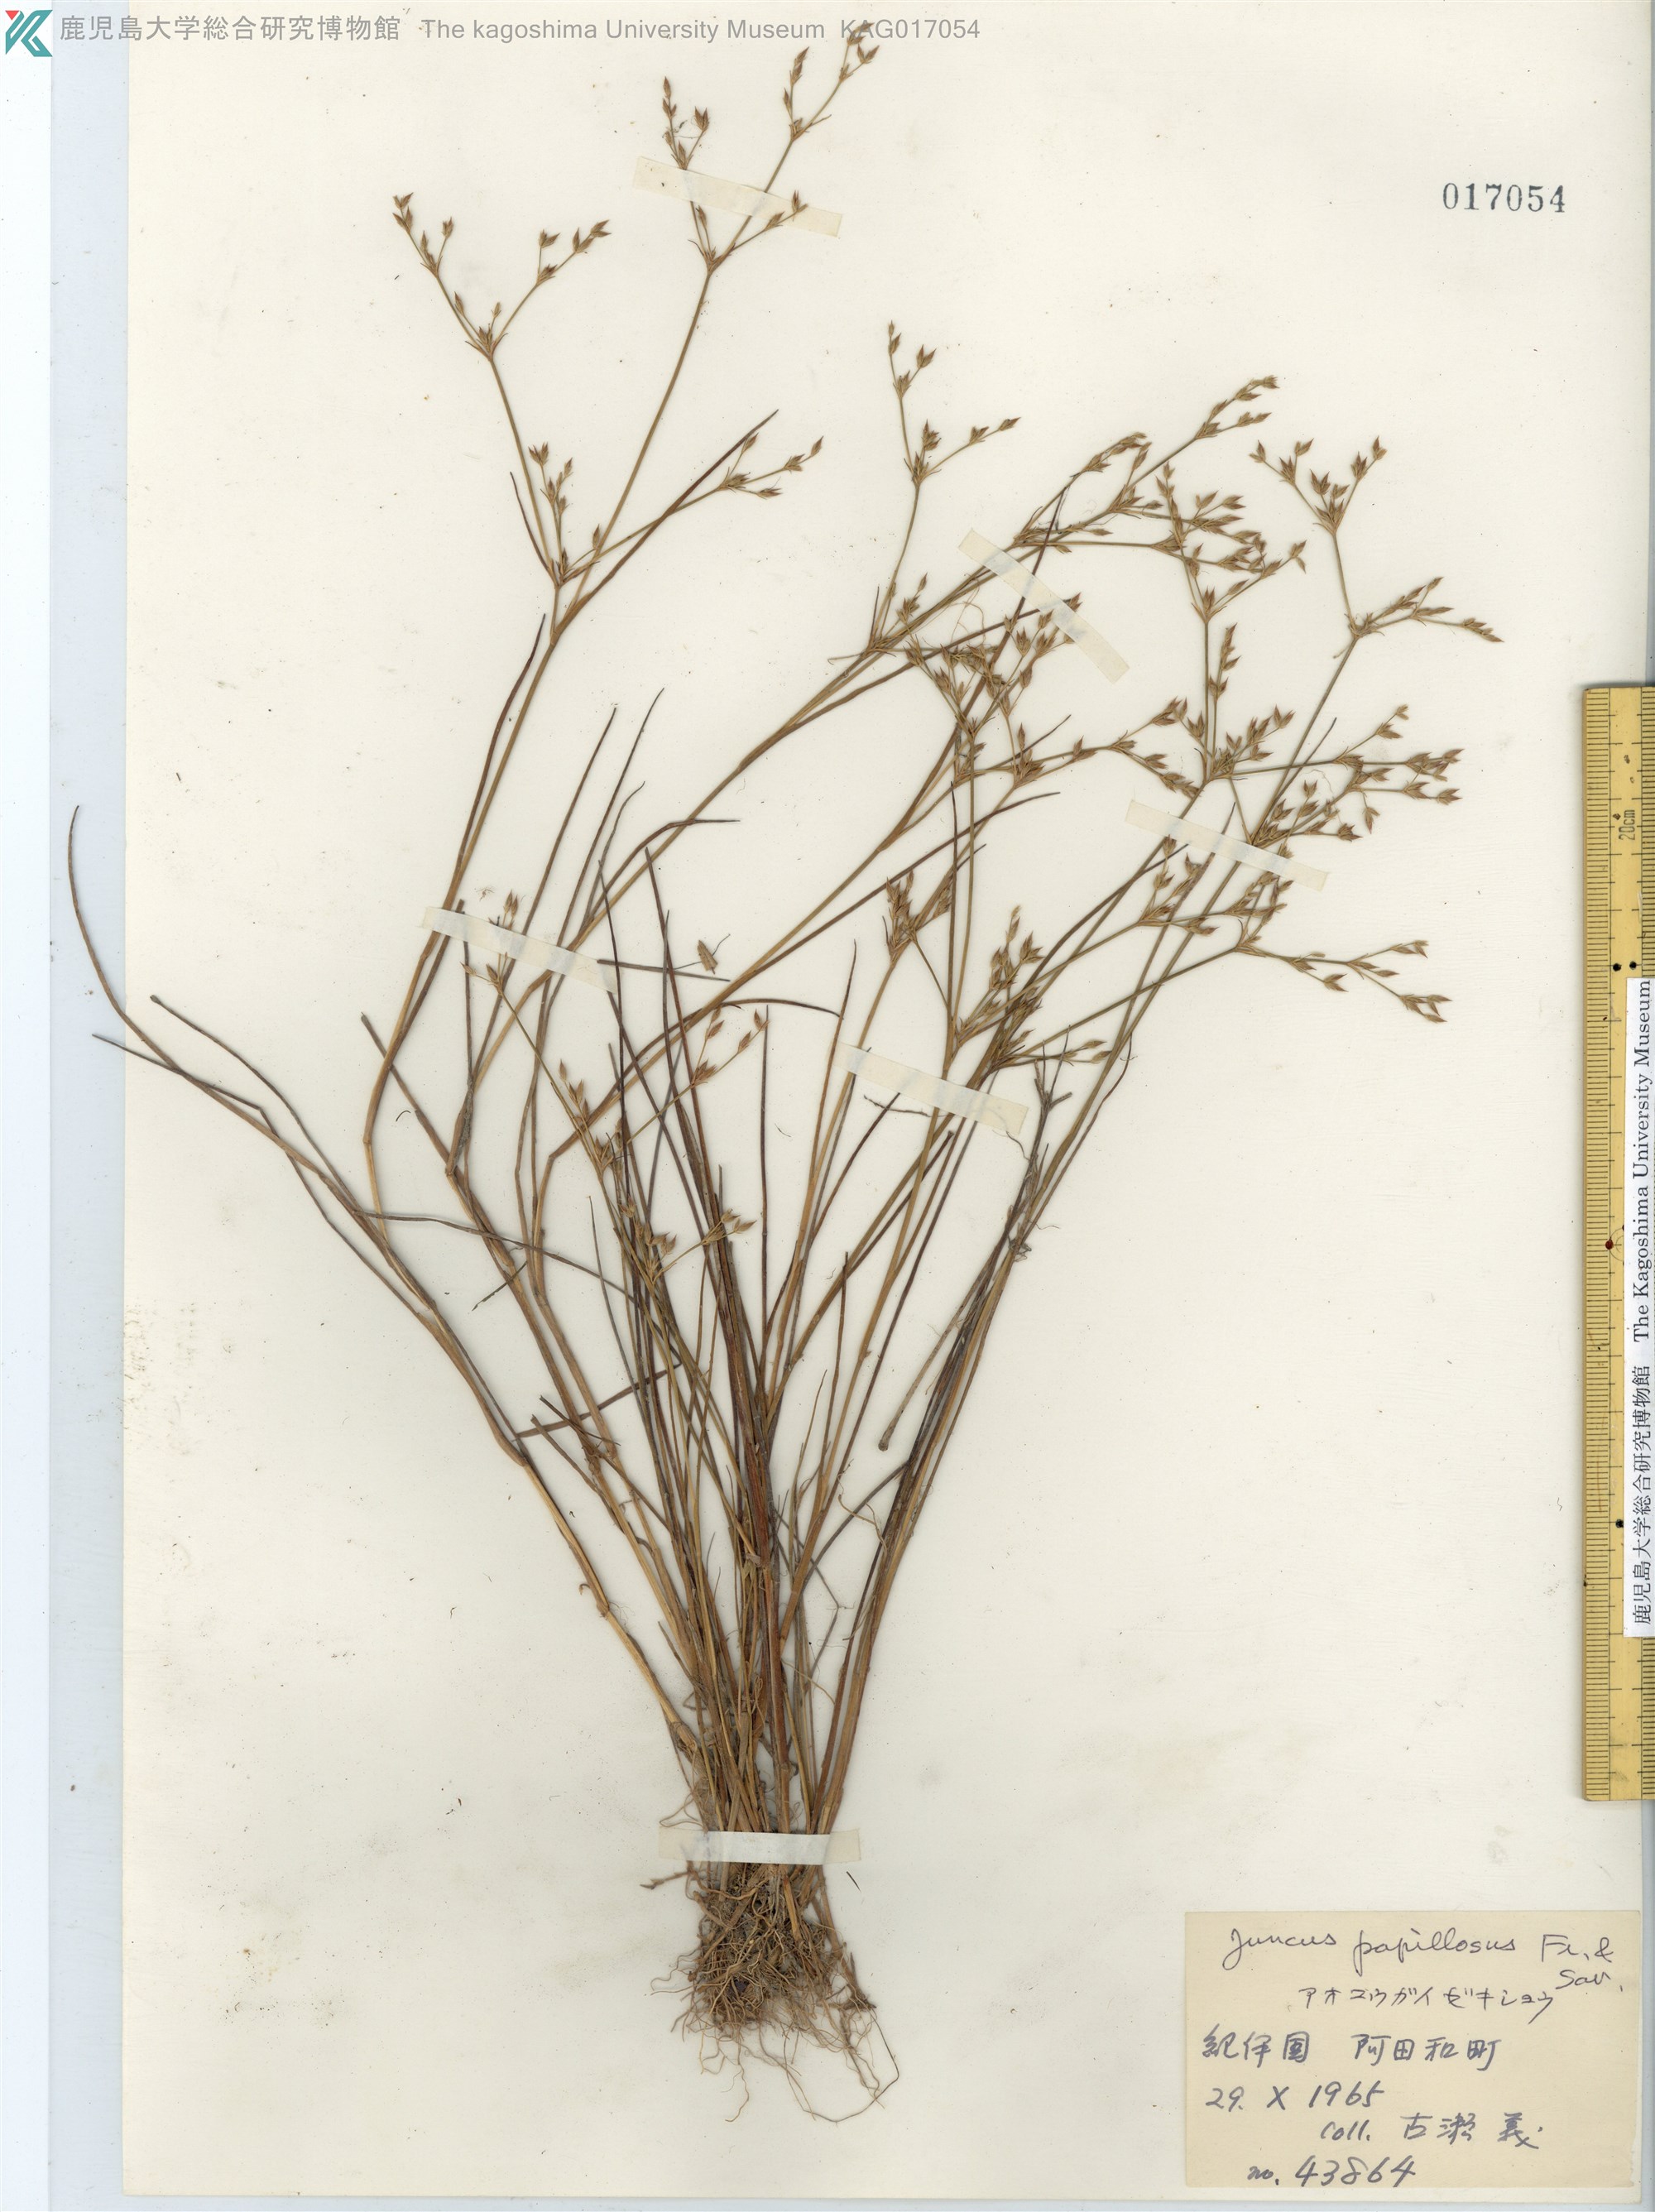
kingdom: Plantae
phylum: Tracheophyta
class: Liliopsida
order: Poales
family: Juncaceae
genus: Juncus
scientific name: Juncus papillosus
